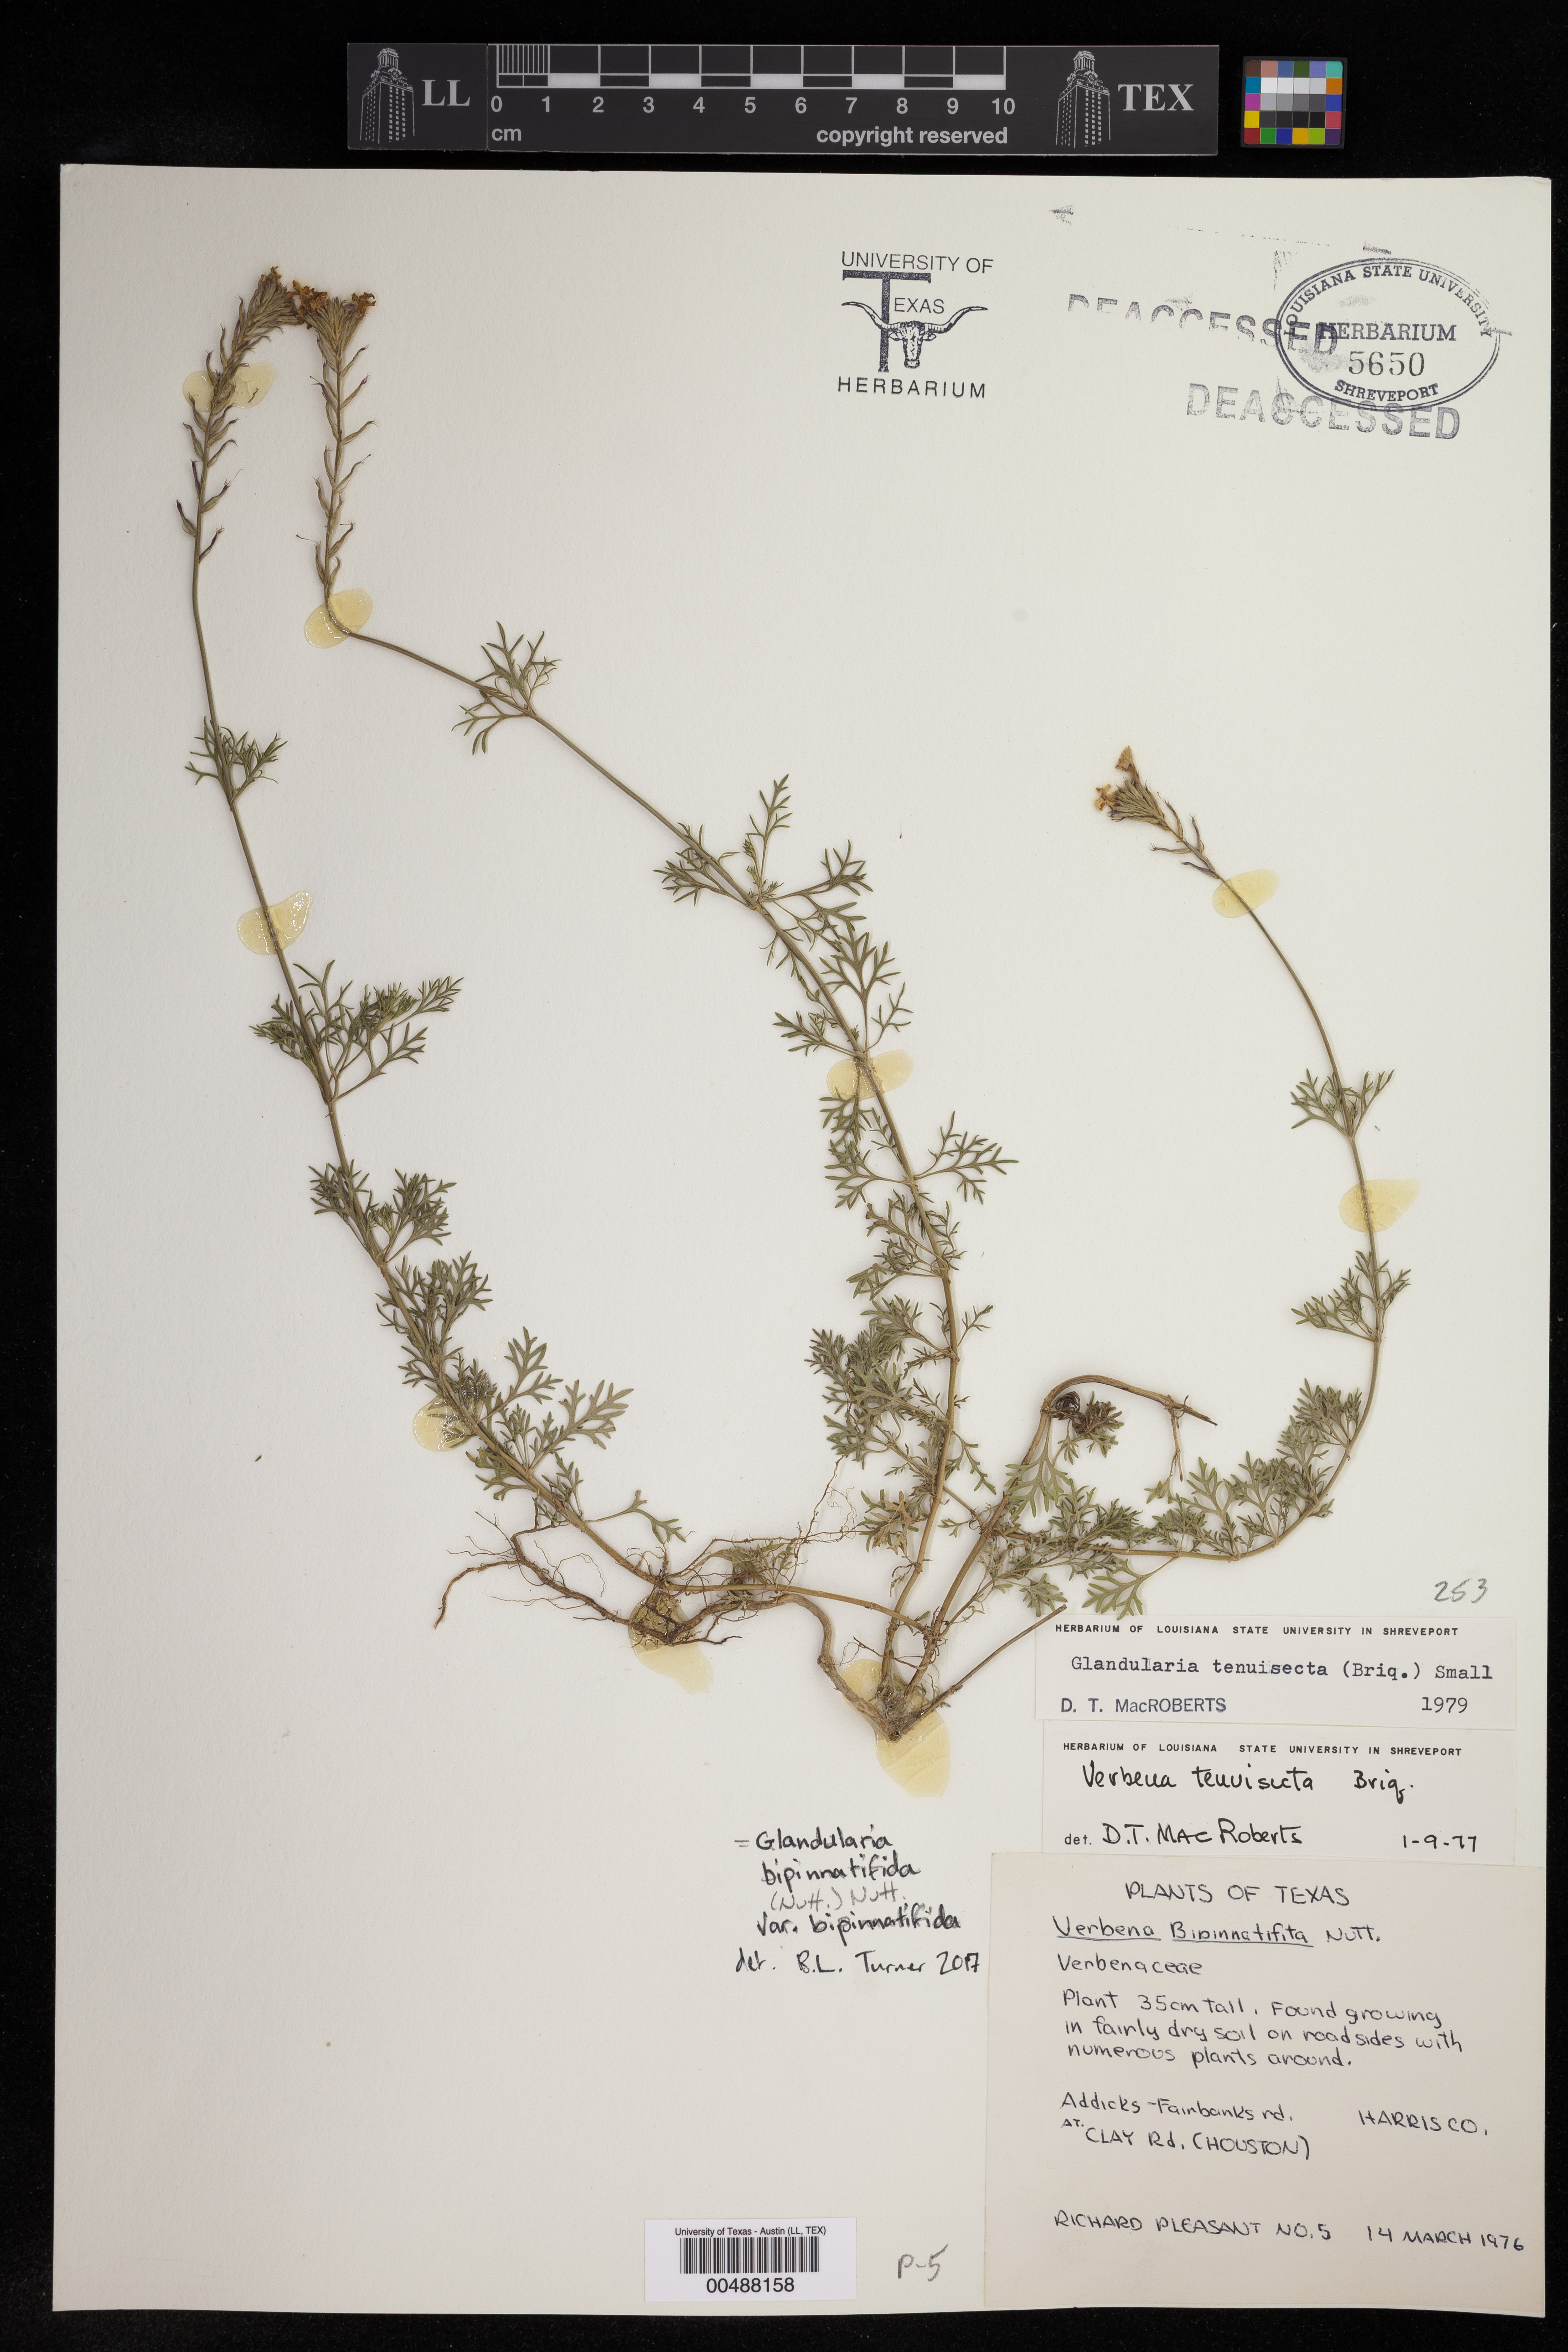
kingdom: Plantae
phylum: Tracheophyta
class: Magnoliopsida
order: Lamiales
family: Verbenaceae
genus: Verbena
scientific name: Verbena bipinnatifida
